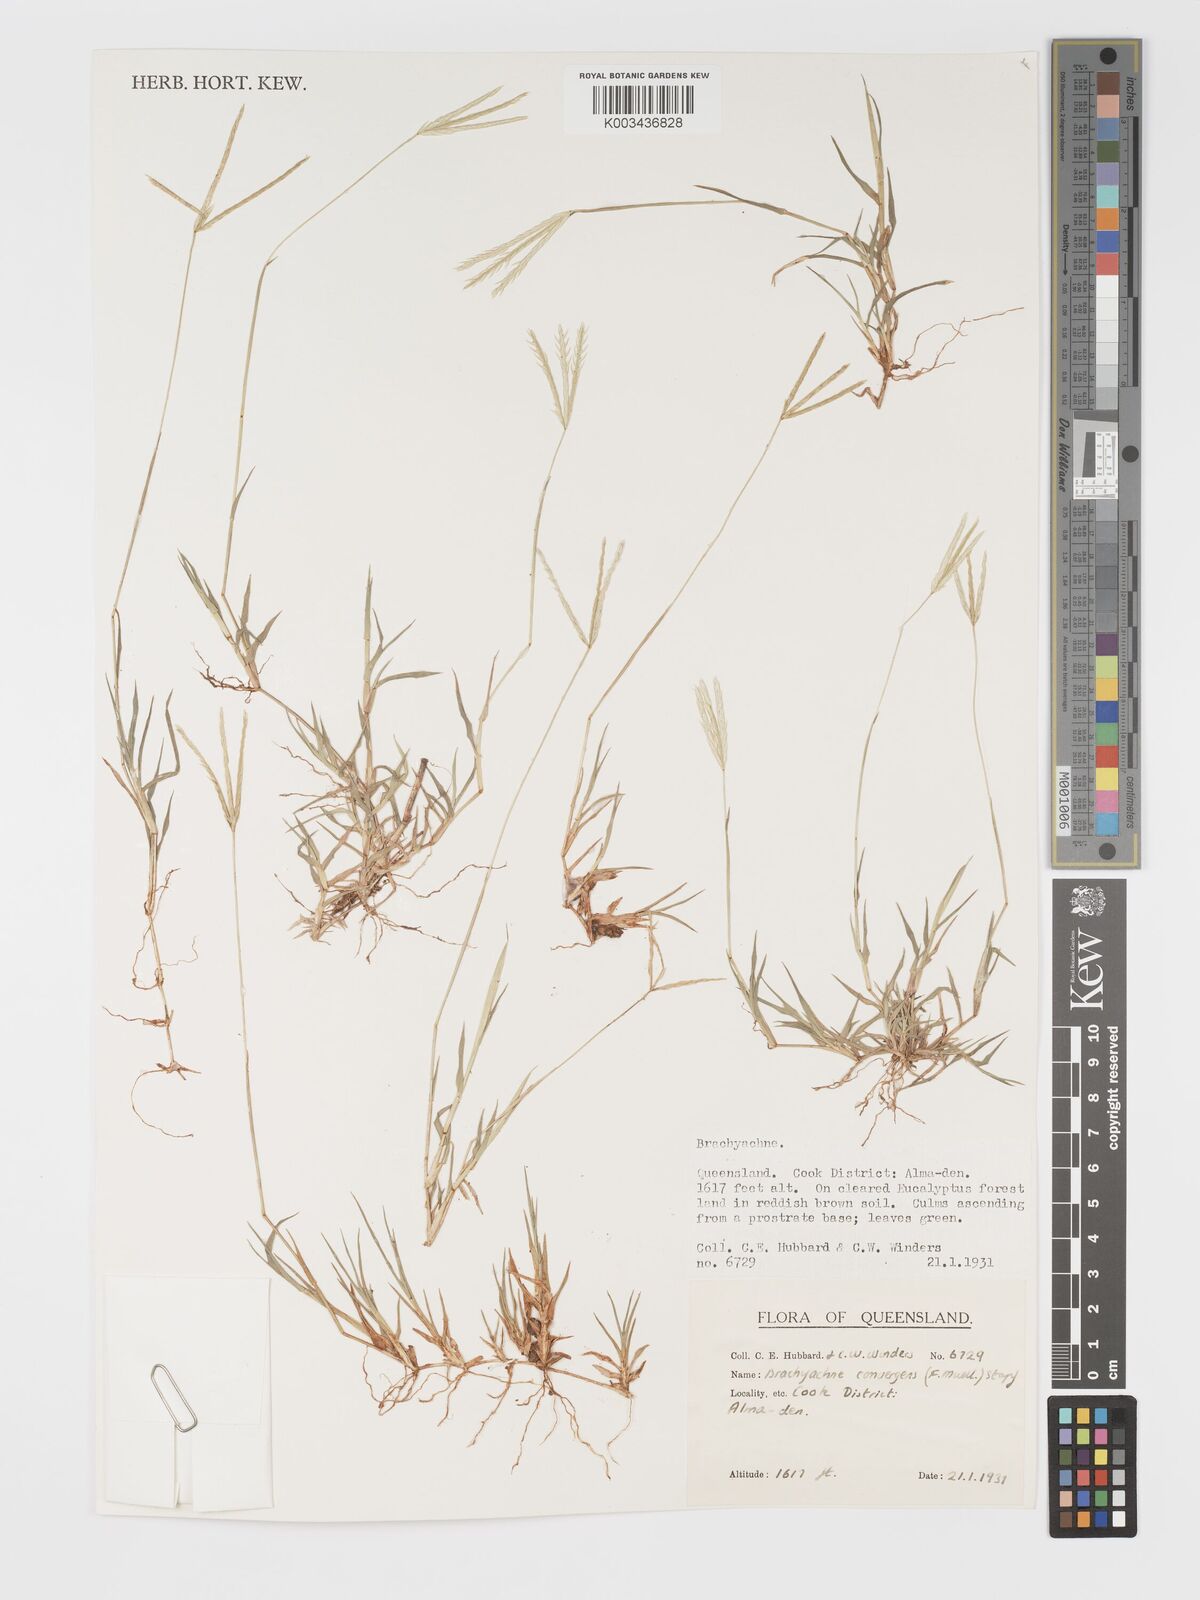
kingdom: Plantae
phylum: Tracheophyta
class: Liliopsida
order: Poales
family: Poaceae
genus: Cynodon
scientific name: Cynodon convergens
